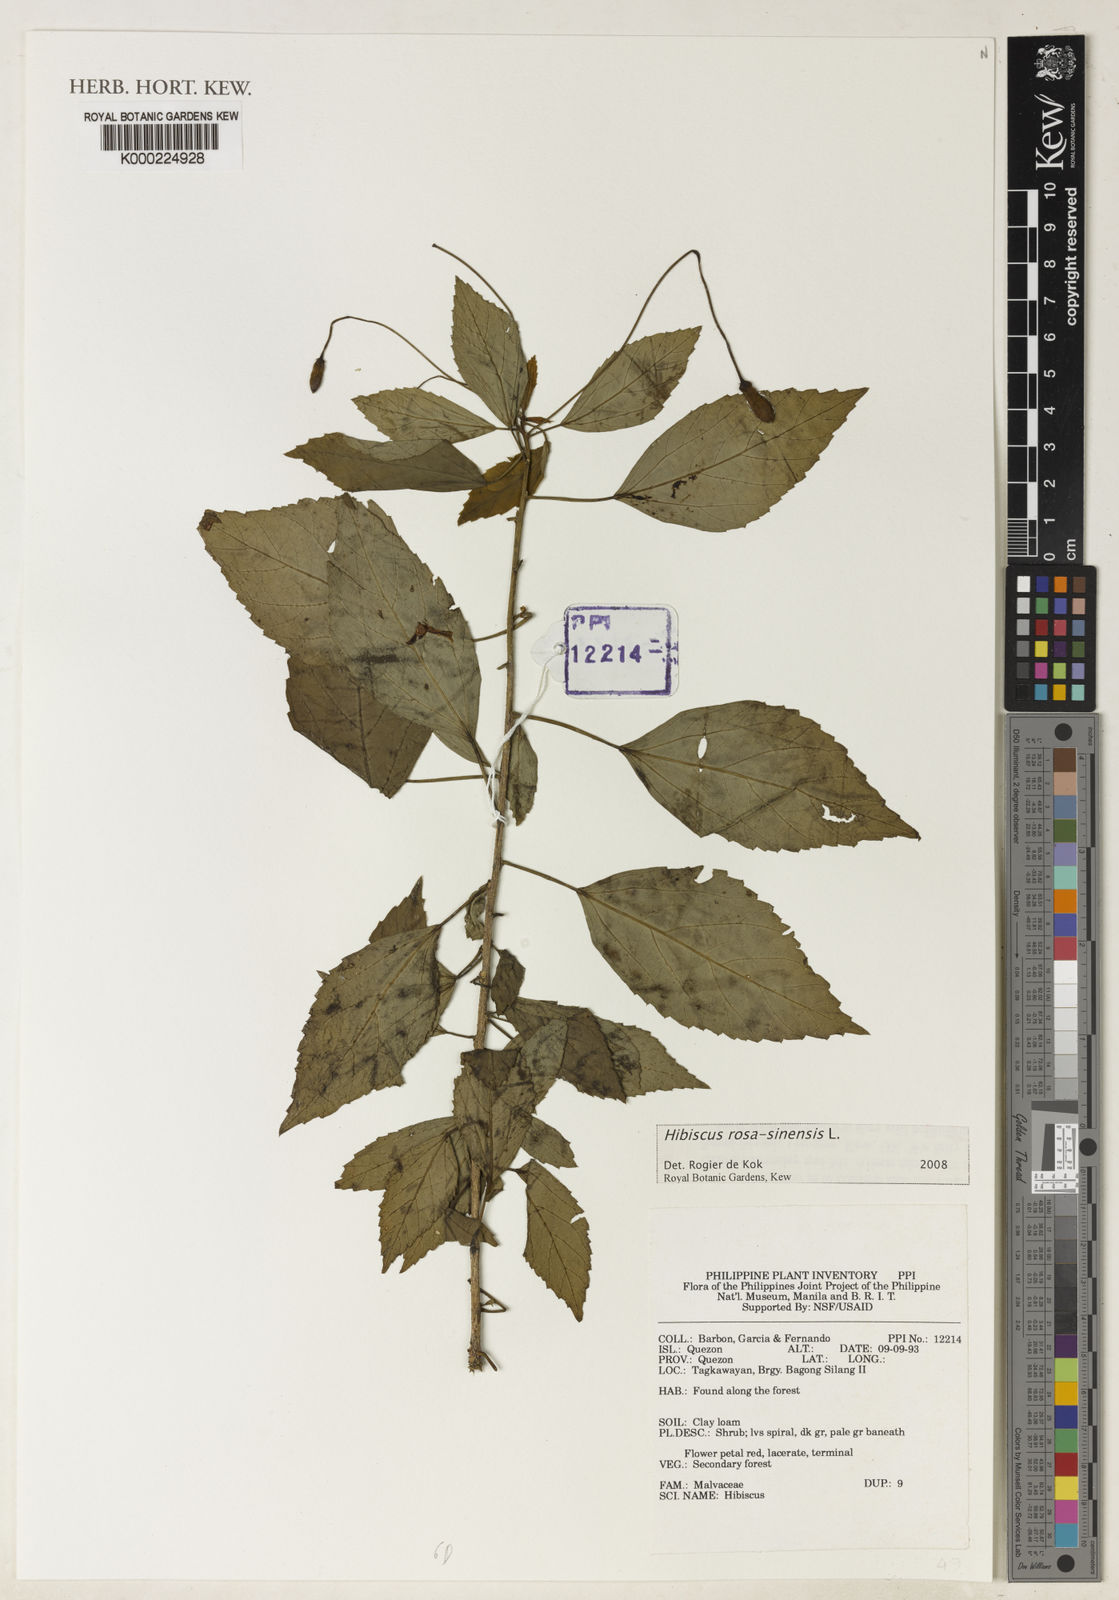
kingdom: Plantae
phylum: Tracheophyta
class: Magnoliopsida
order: Malvales
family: Malvaceae
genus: Hibiscus
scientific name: Hibiscus rosa-sinensis
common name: Hibiscus
